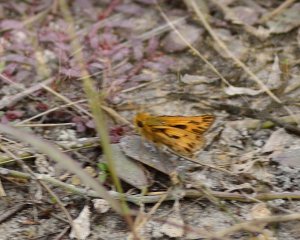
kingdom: Animalia
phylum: Arthropoda
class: Insecta
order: Lepidoptera
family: Hesperiidae
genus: Hylephila
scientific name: Hylephila phyleus
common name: Fiery Skipper
